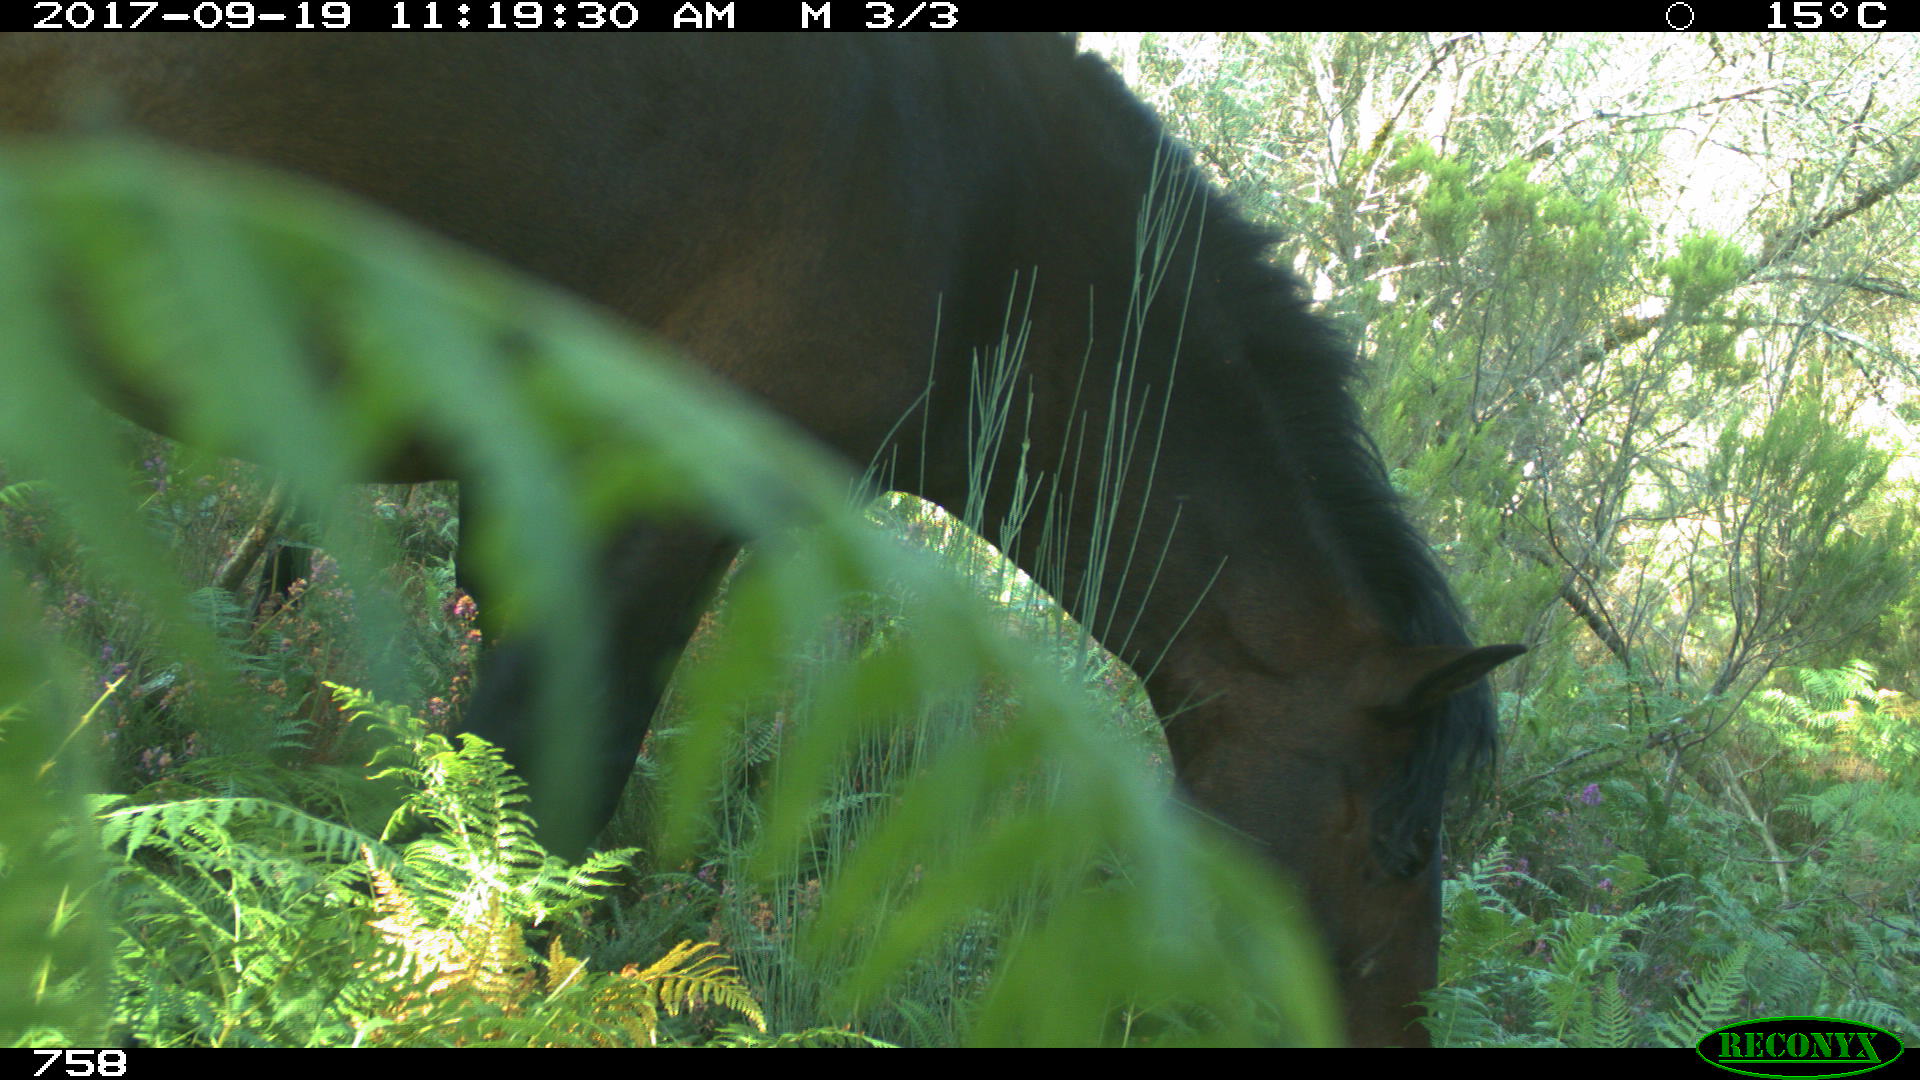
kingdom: Animalia
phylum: Chordata
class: Mammalia
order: Perissodactyla
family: Equidae
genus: Equus
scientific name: Equus caballus
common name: Horse
